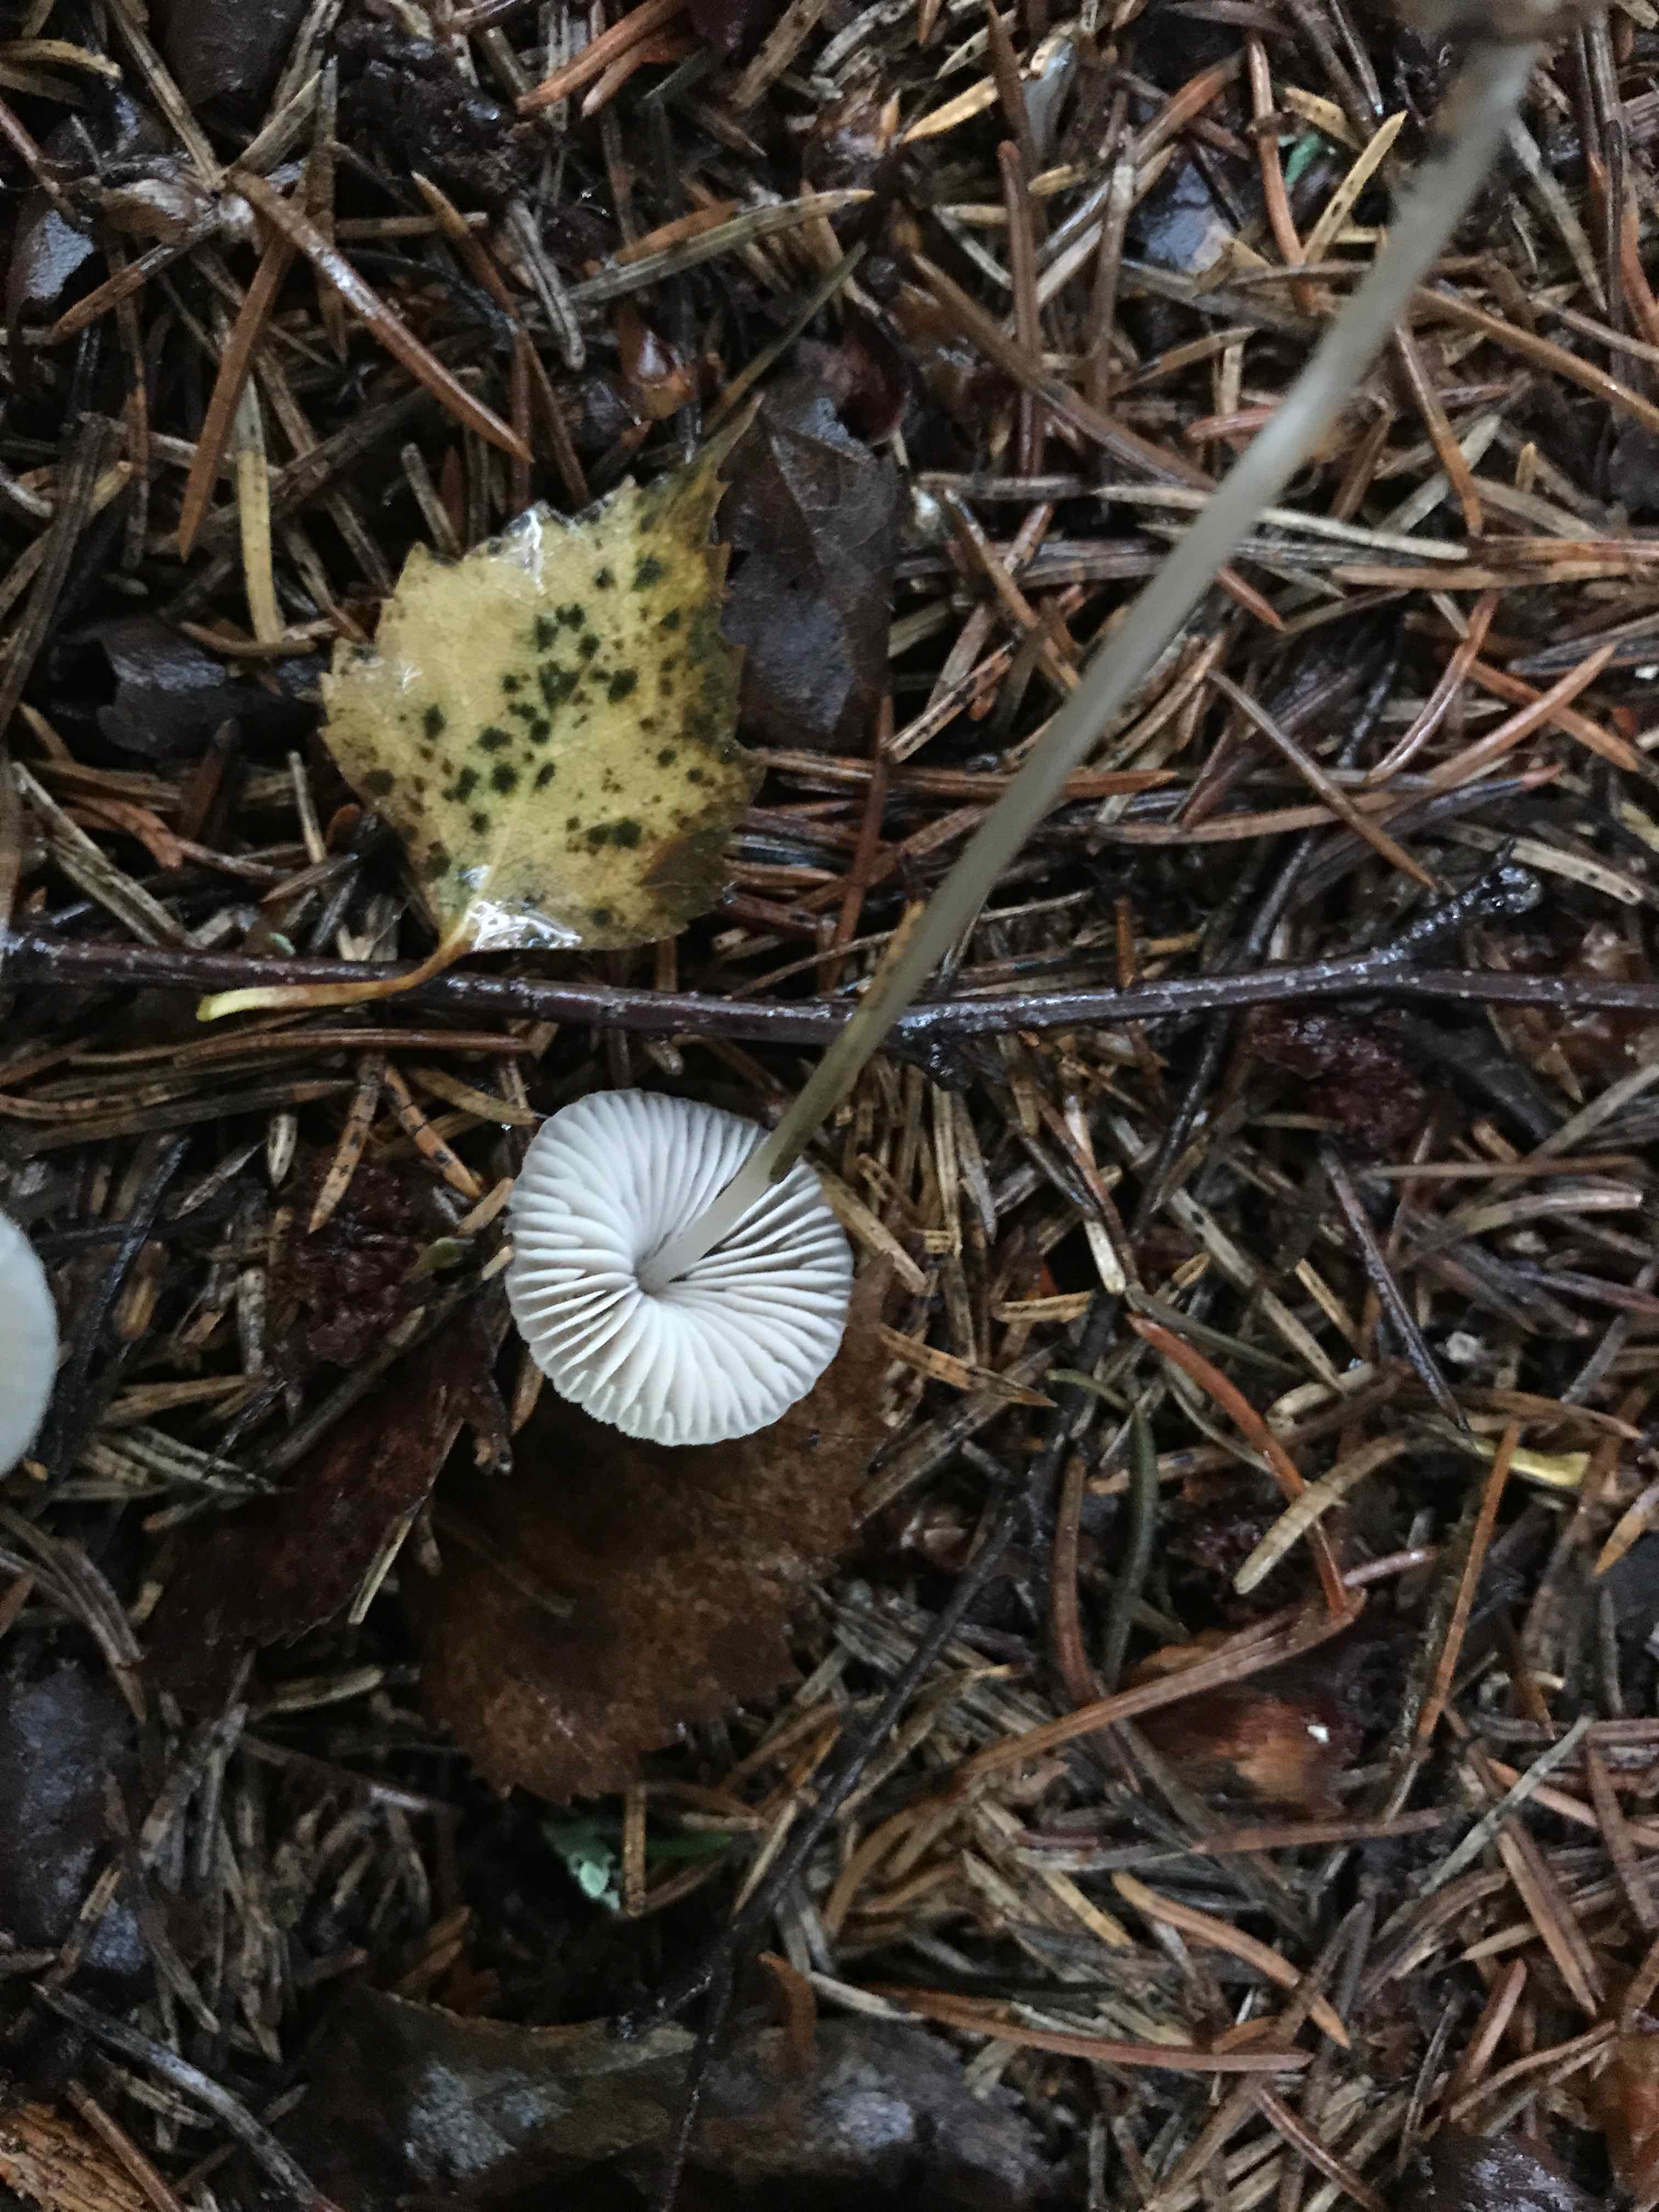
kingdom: Fungi
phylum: Basidiomycota
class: Agaricomycetes
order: Agaricales
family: Mycenaceae
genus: Mycena
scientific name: Mycena
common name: huesvamp
